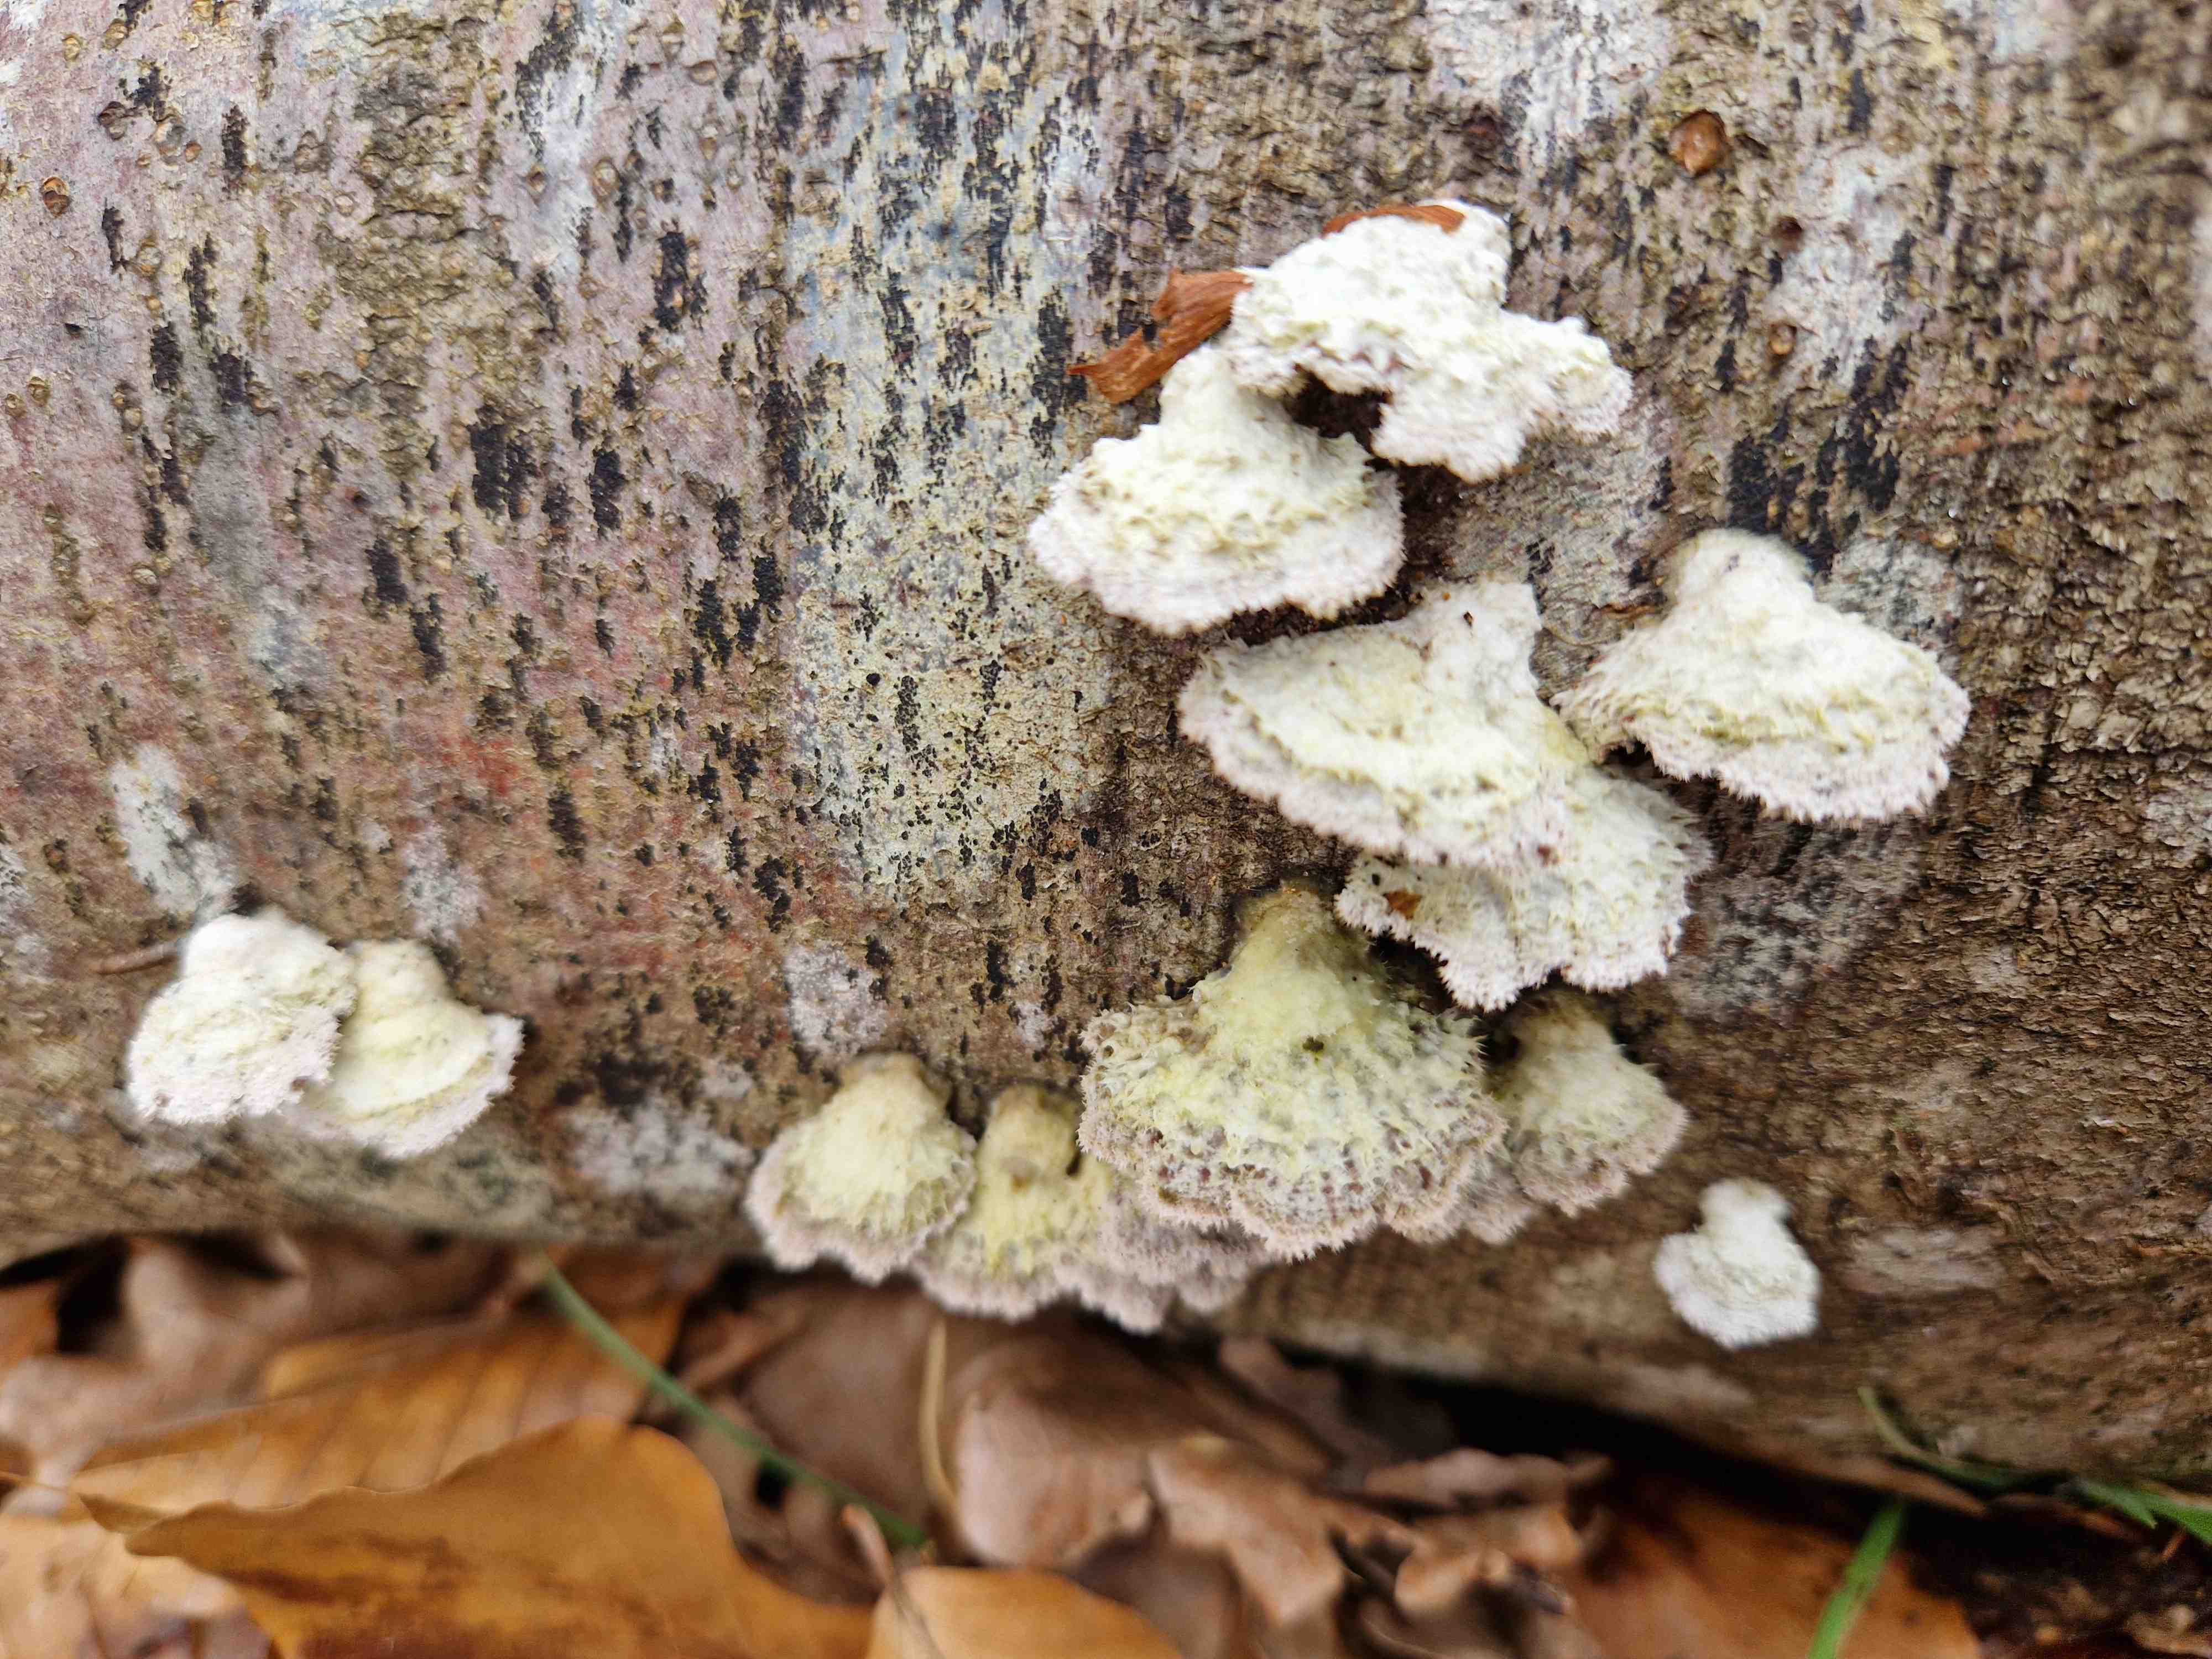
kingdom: Fungi
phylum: Basidiomycota
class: Agaricomycetes
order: Agaricales
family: Schizophyllaceae
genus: Schizophyllum
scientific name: Schizophyllum commune
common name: kløvblad
